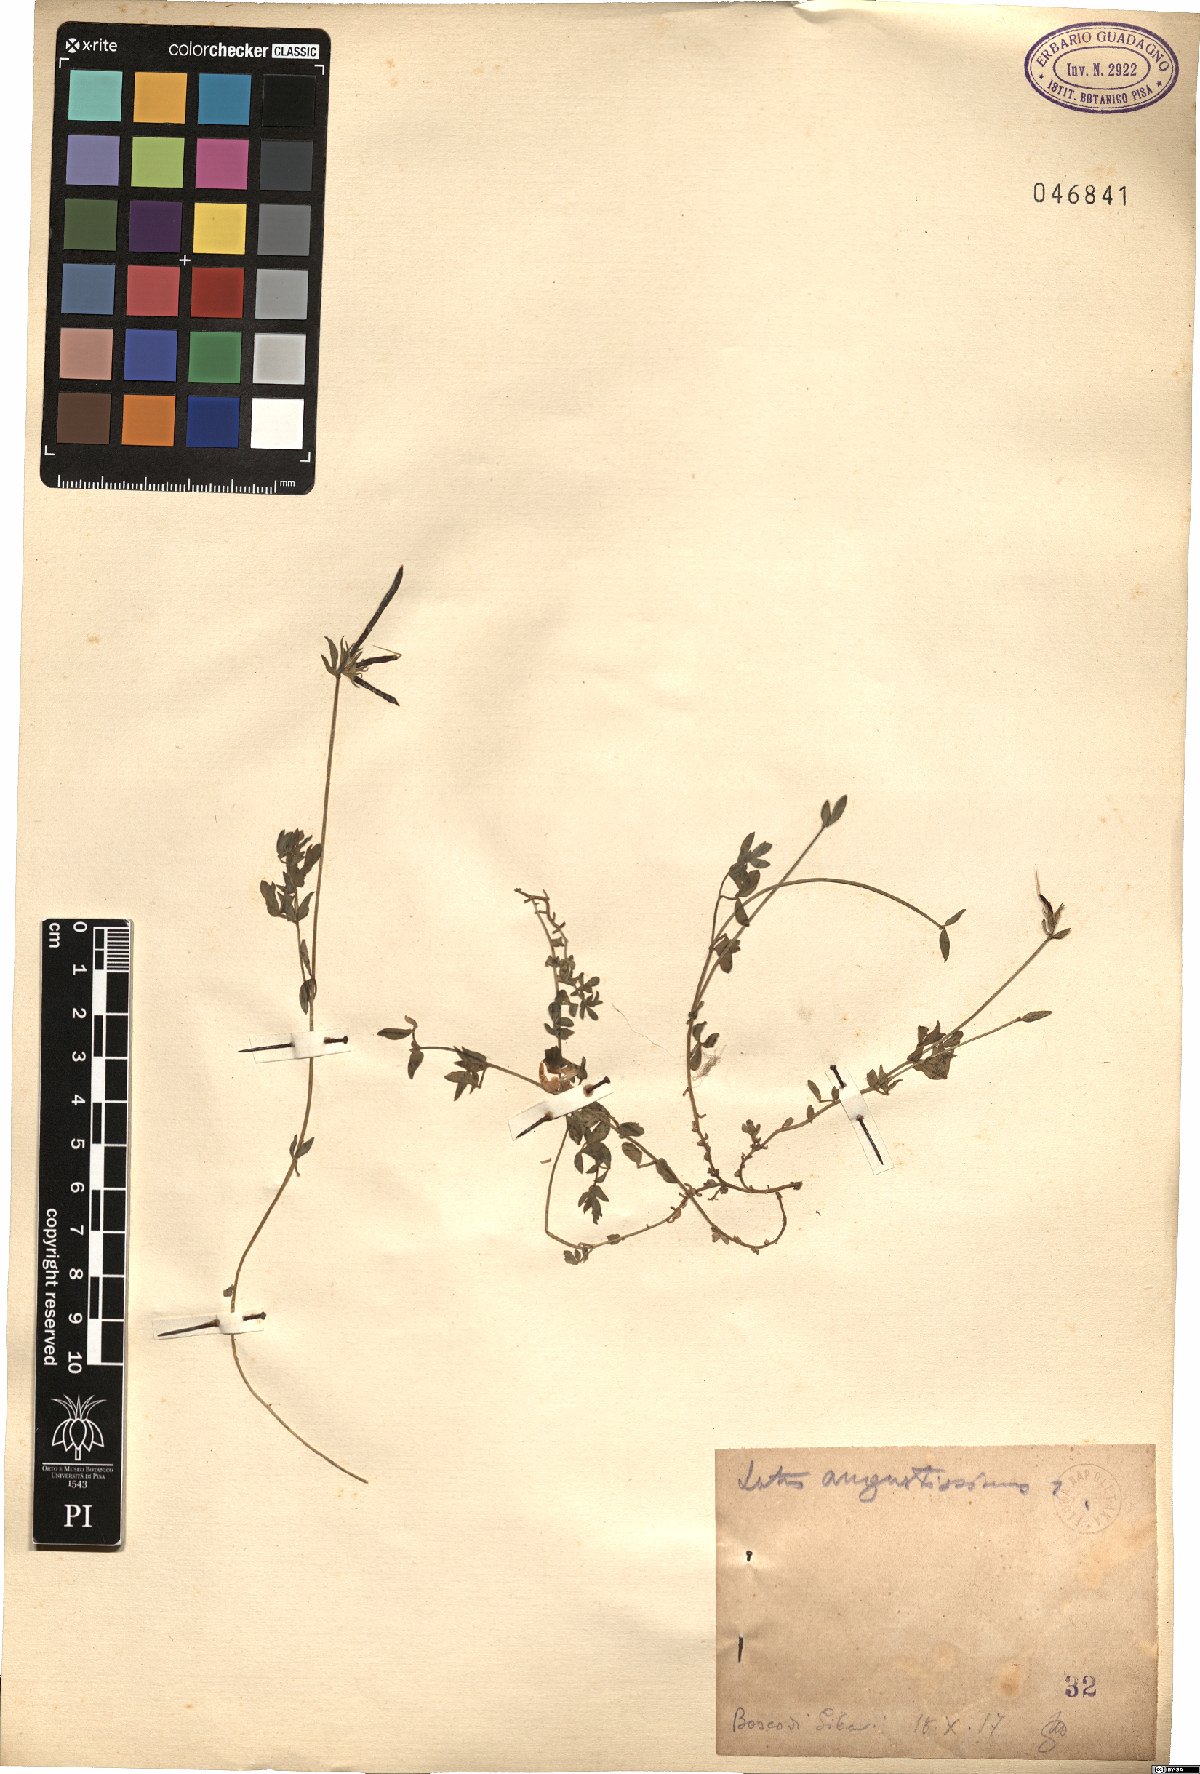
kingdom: Plantae
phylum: Tracheophyta
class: Magnoliopsida
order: Fabales
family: Fabaceae
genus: Lotus
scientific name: Lotus angustissimus
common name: Slender bird's-foot trefoil
